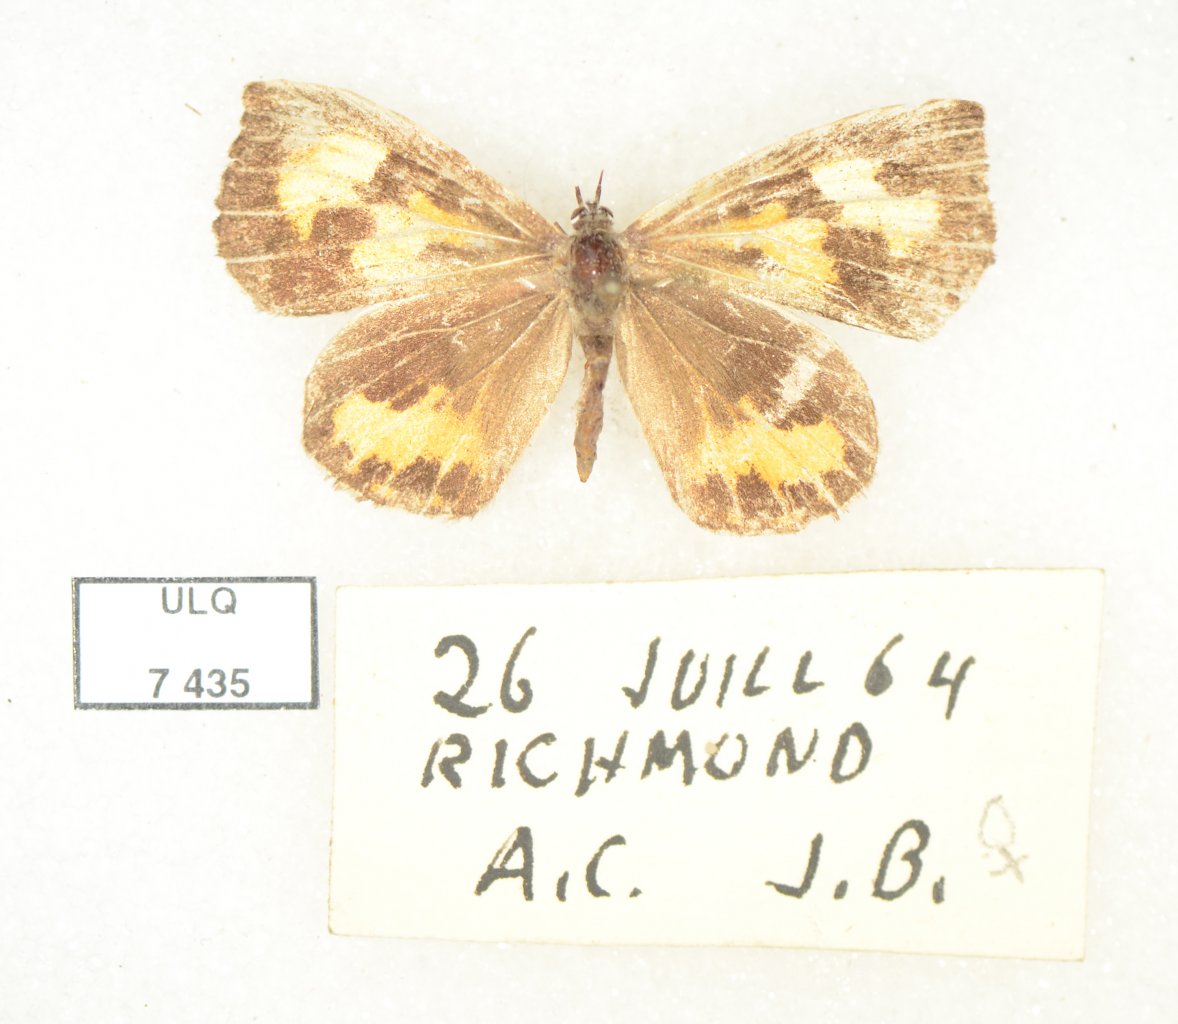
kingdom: Animalia
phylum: Arthropoda
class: Insecta
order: Lepidoptera
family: Lycaenidae
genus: Feniseca
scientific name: Feniseca tarquinius
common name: Harvester
